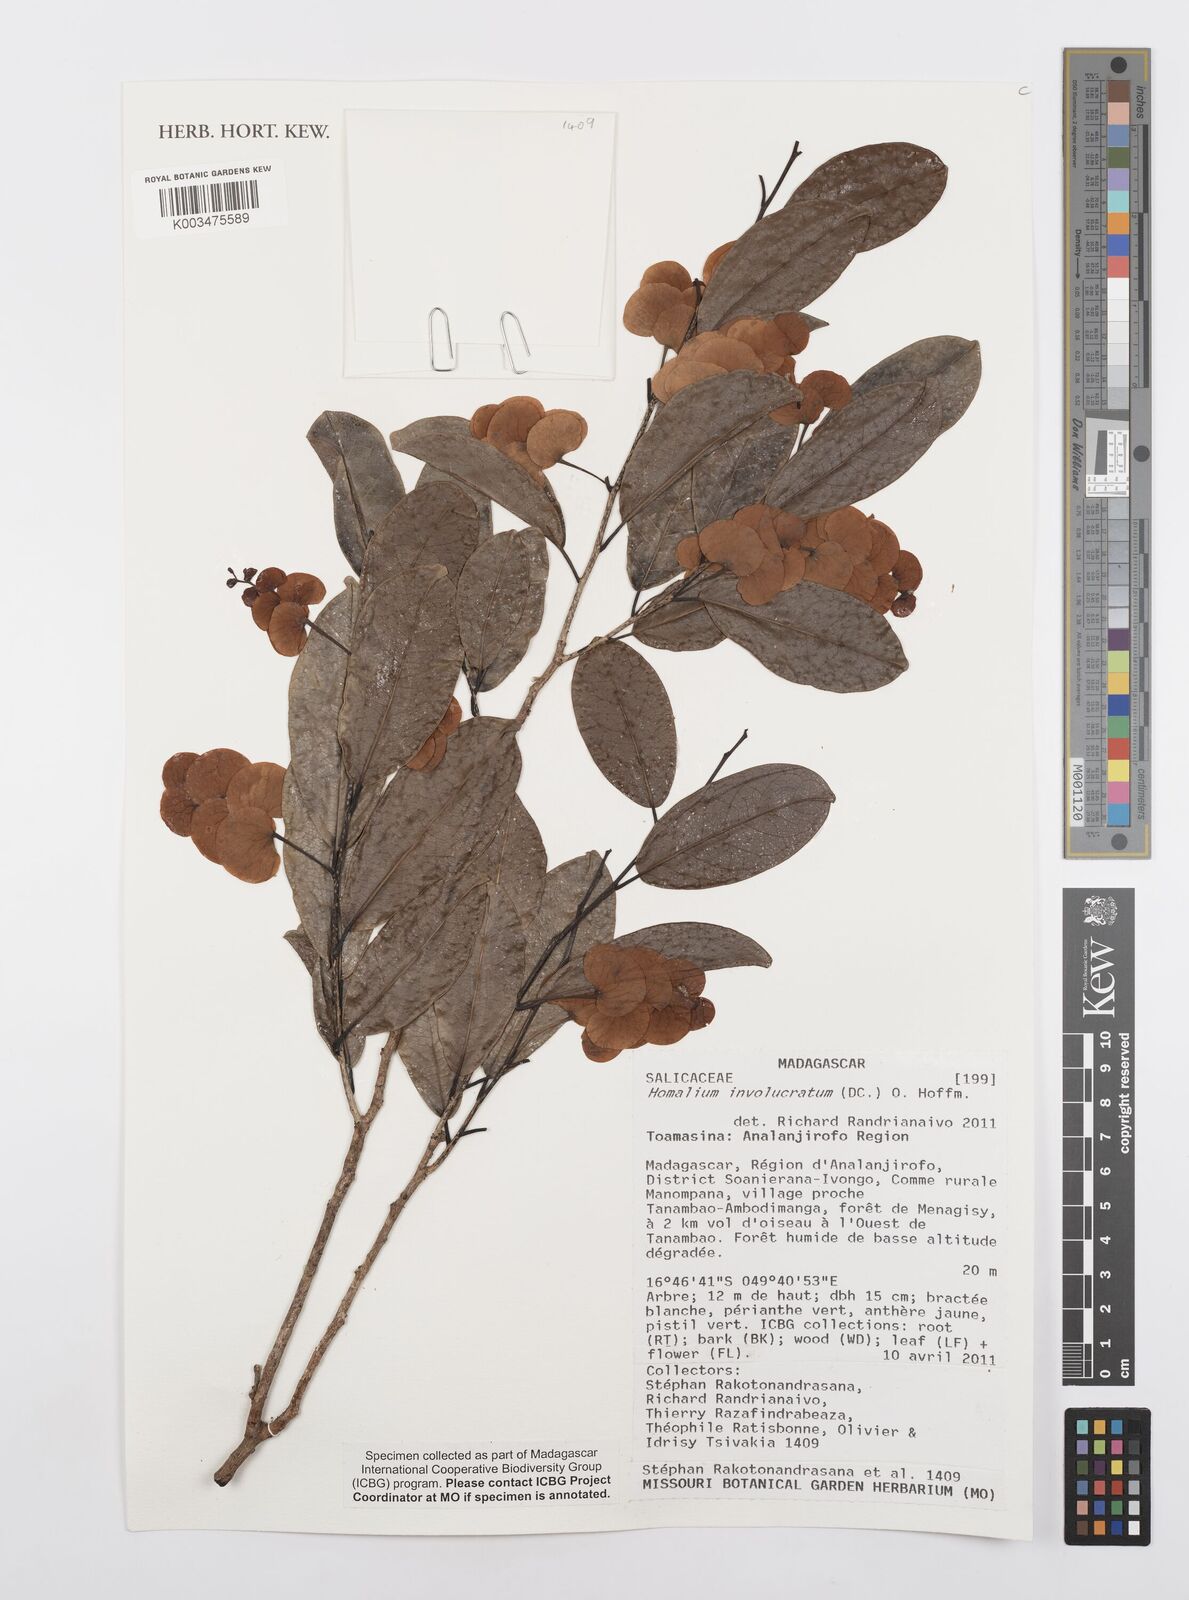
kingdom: Plantae
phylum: Tracheophyta
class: Magnoliopsida
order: Malpighiales
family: Salicaceae
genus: Homalium
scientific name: Homalium involucratum
